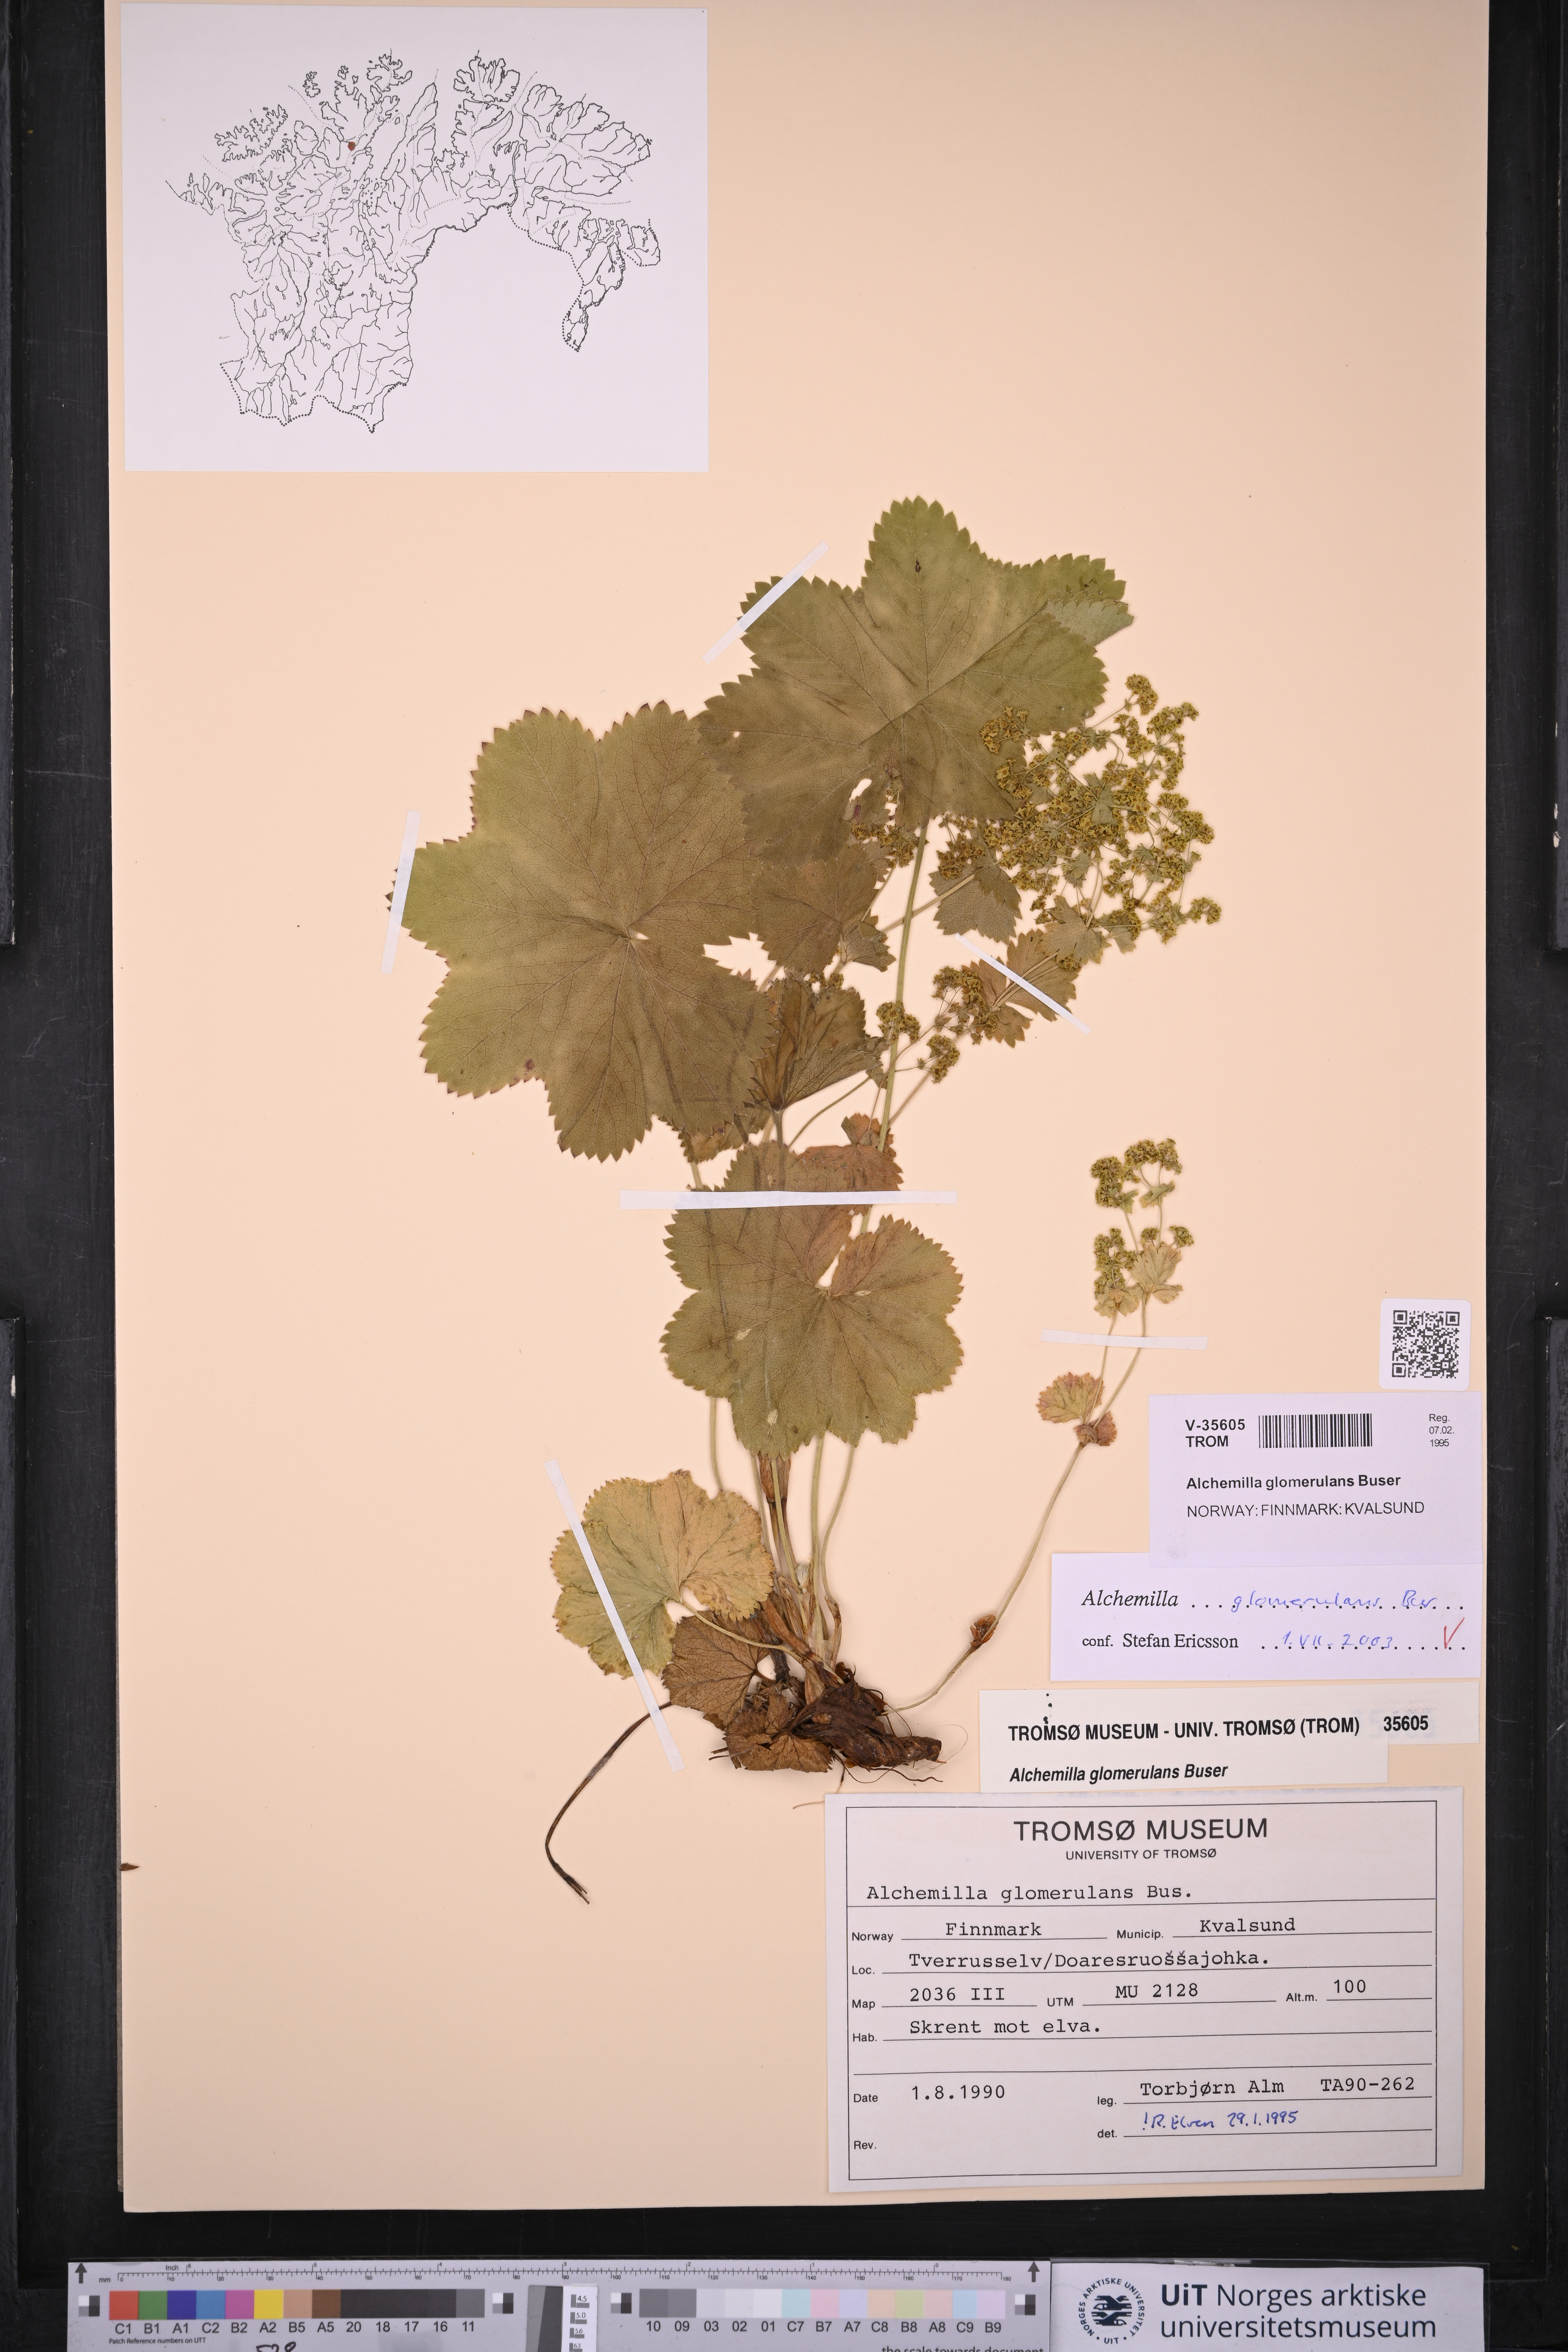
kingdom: Plantae
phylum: Tracheophyta
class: Magnoliopsida
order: Rosales
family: Rosaceae
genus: Alchemilla
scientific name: Alchemilla glomerulans
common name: Clustered lady's mantle
